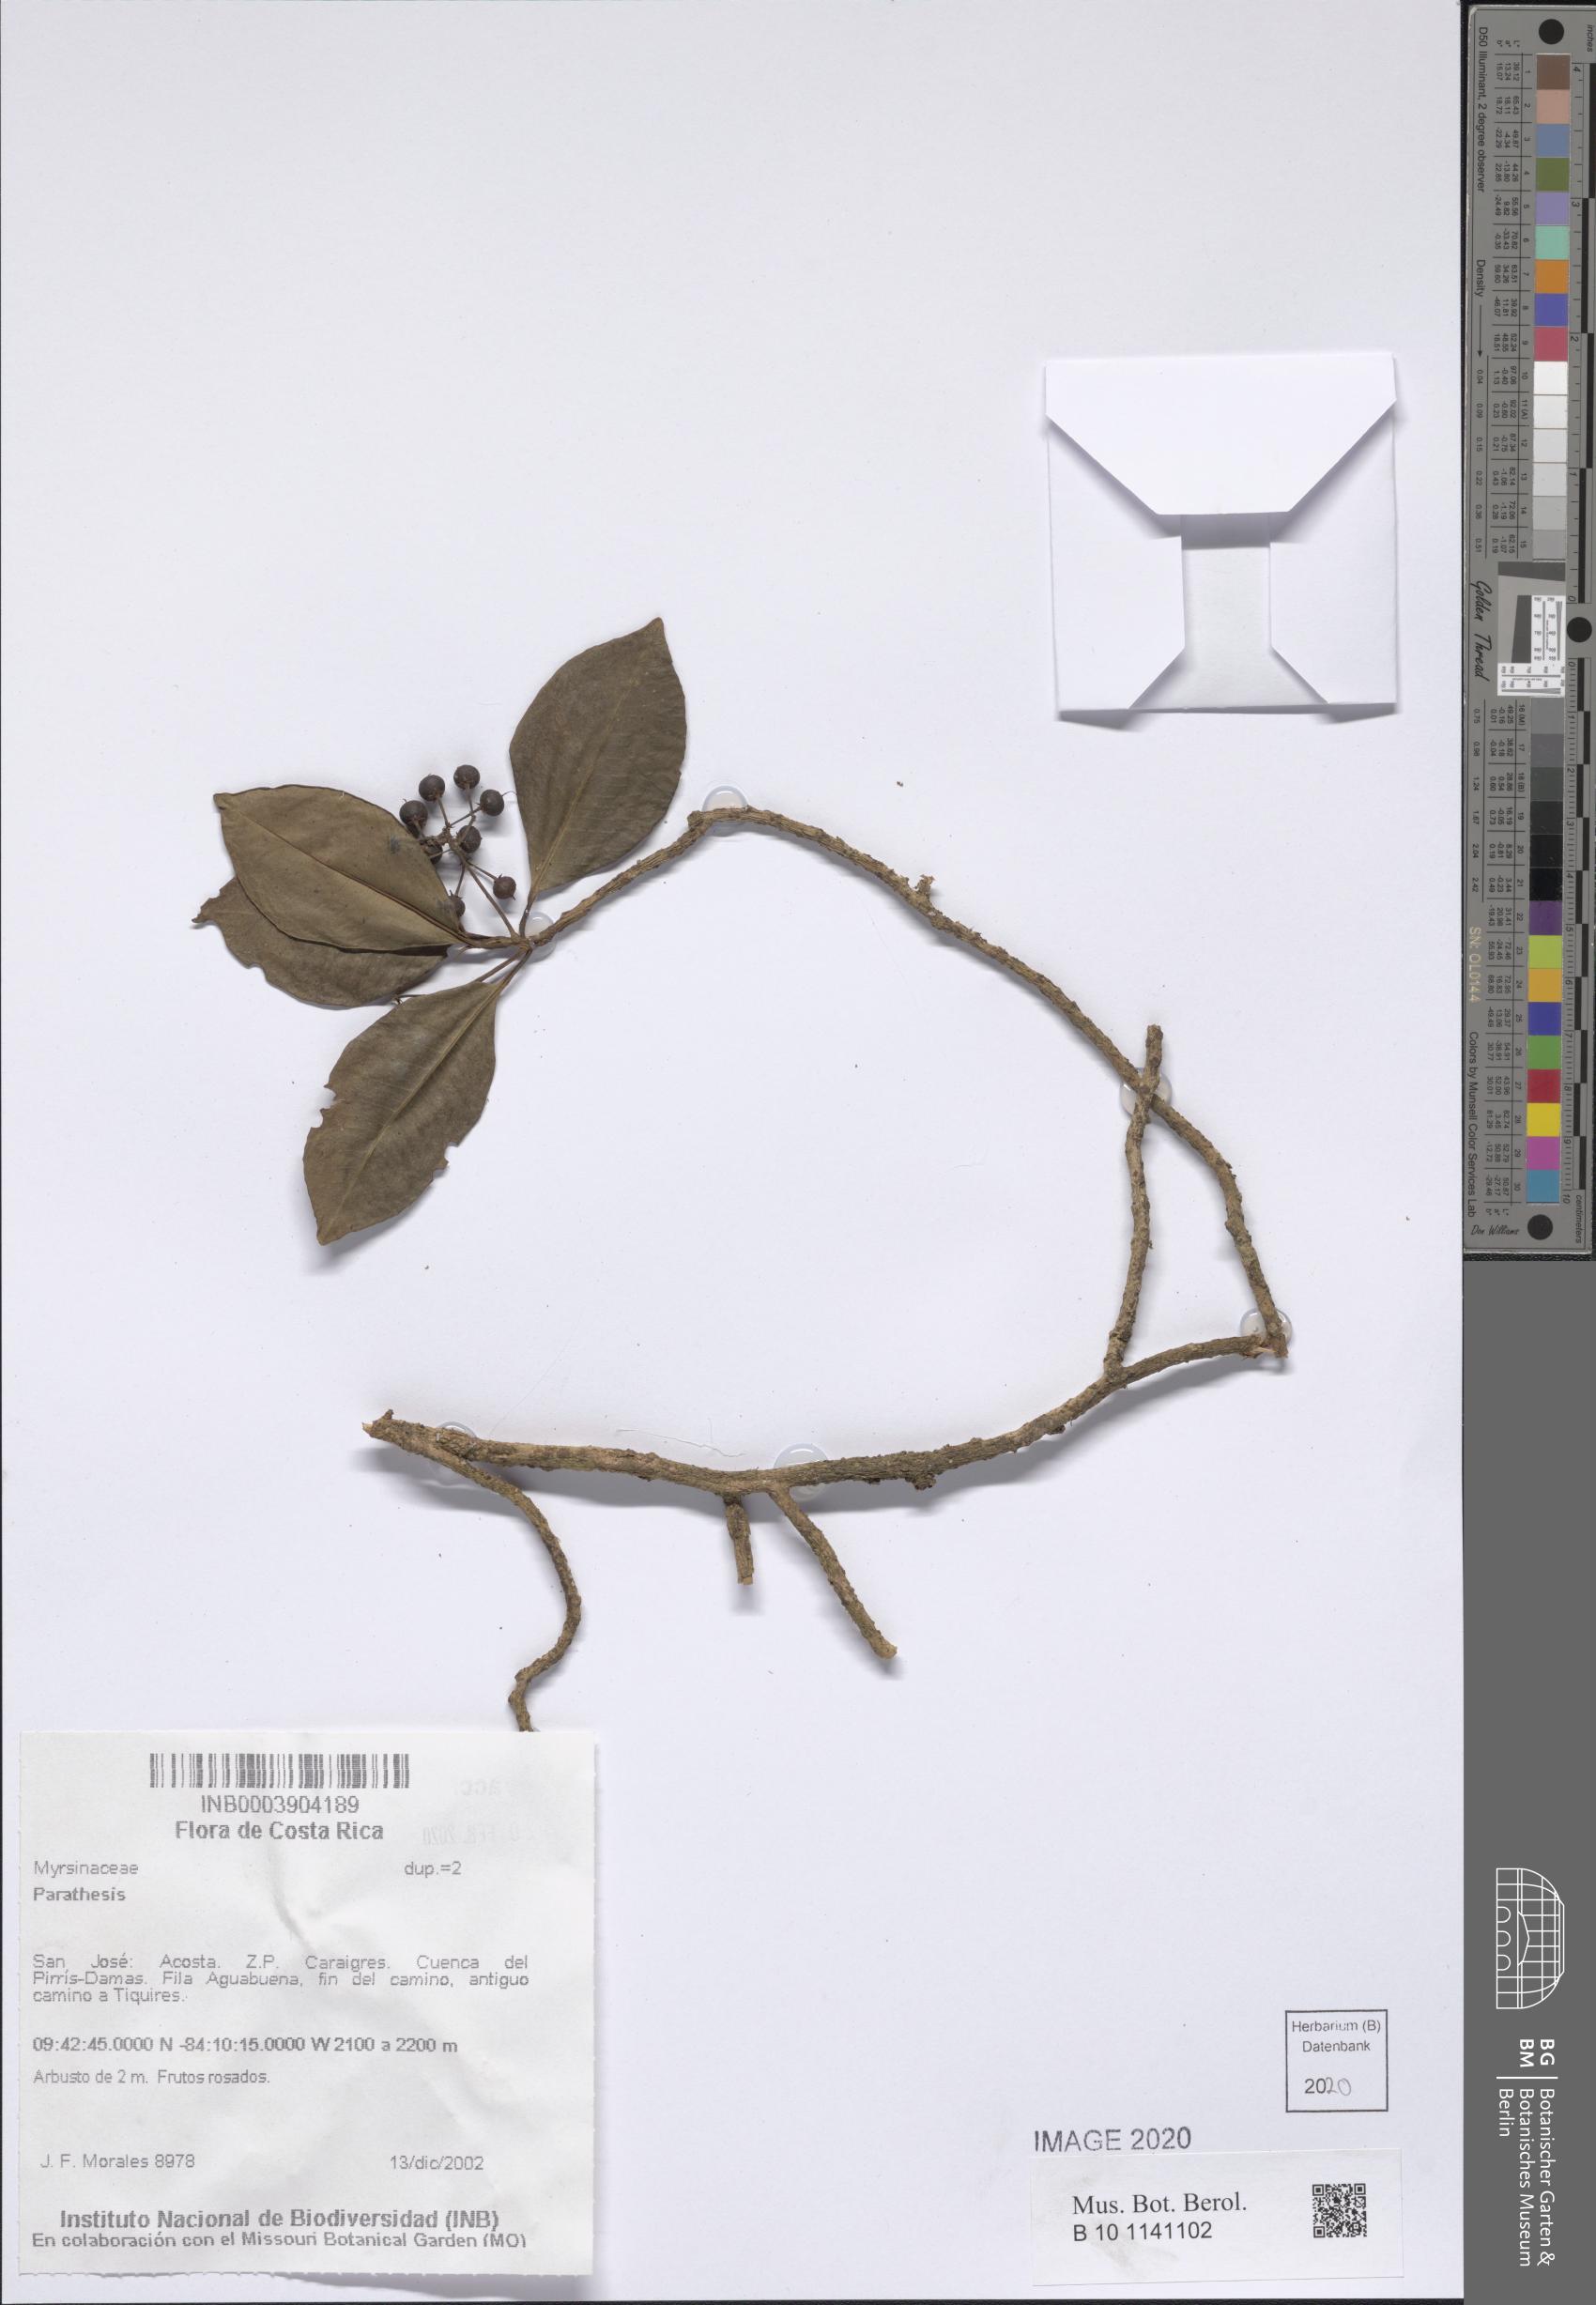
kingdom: Plantae
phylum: Tracheophyta
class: Magnoliopsida
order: Ericales
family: Primulaceae
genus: Parathesis
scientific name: Parathesis
